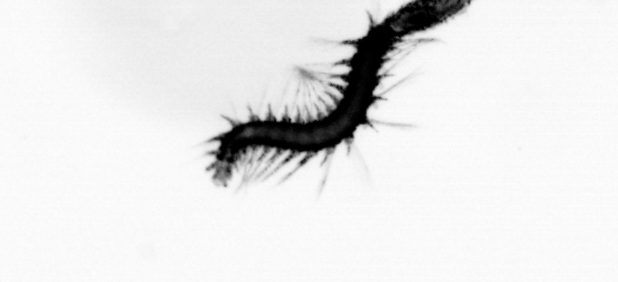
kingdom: Animalia
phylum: Annelida
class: Polychaeta
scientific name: Polychaeta
